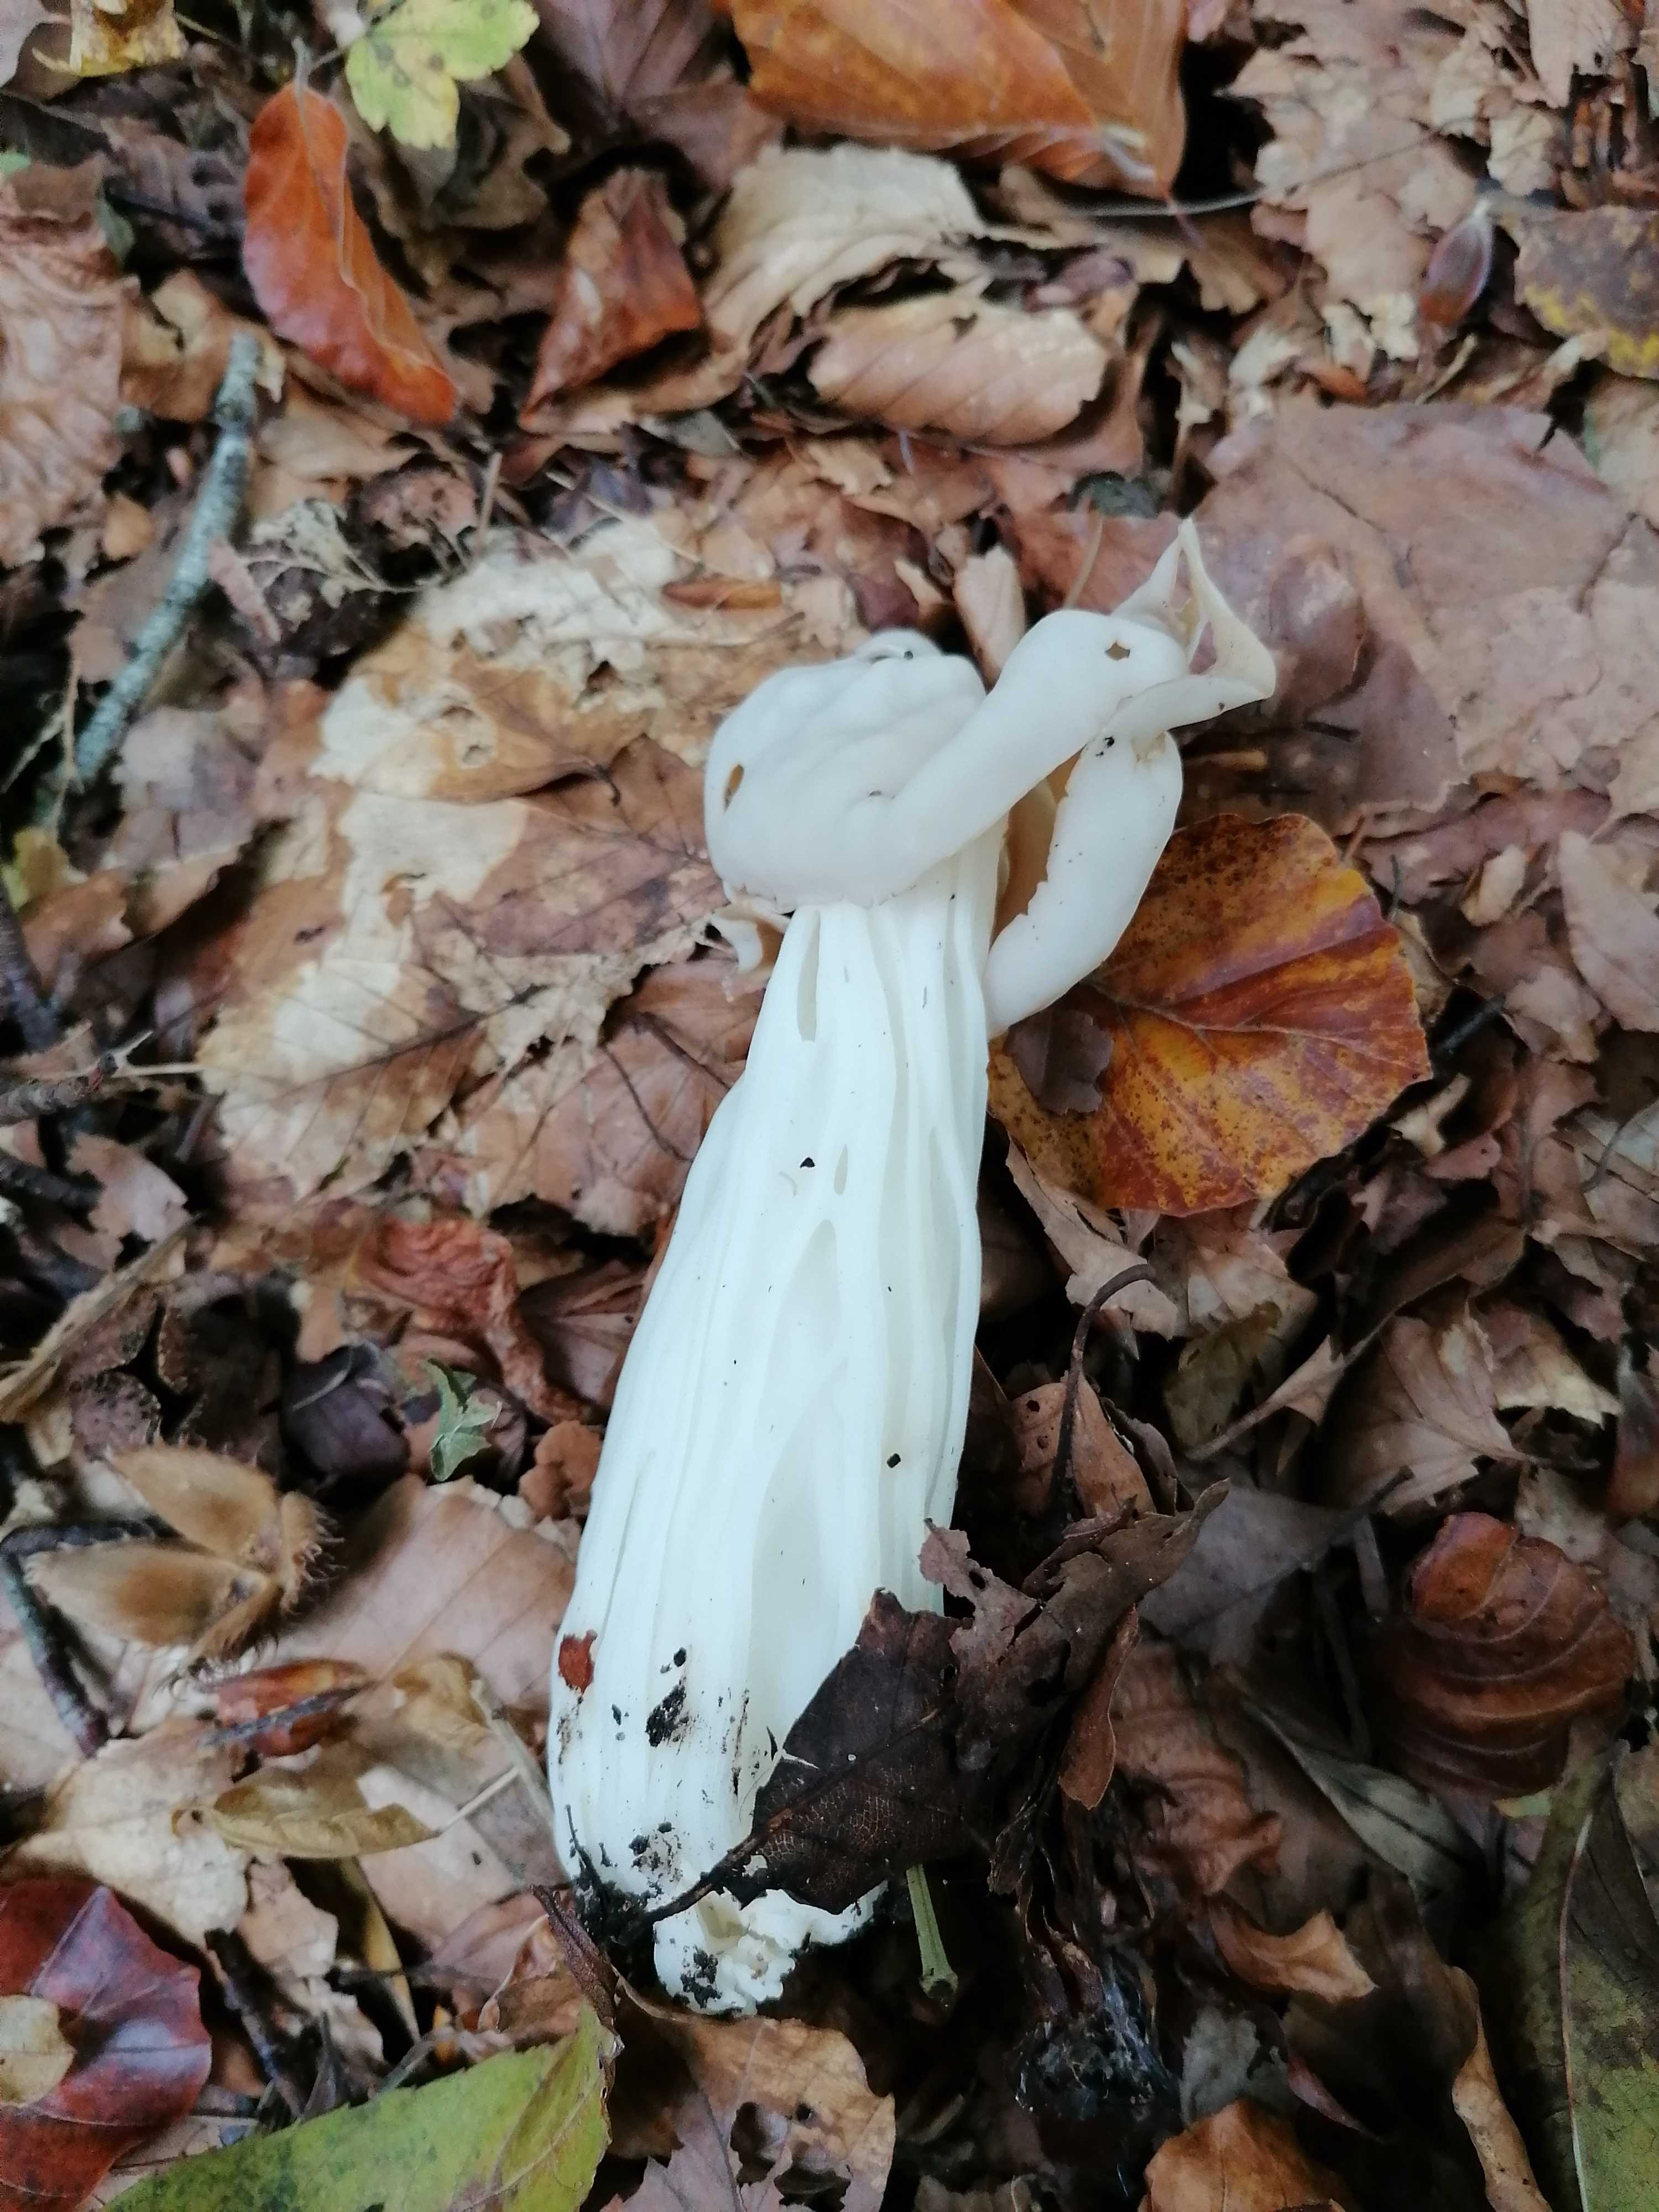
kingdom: Fungi
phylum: Ascomycota
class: Pezizomycetes
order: Pezizales
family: Helvellaceae
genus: Helvella
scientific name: Helvella crispa
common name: kruset foldhat
